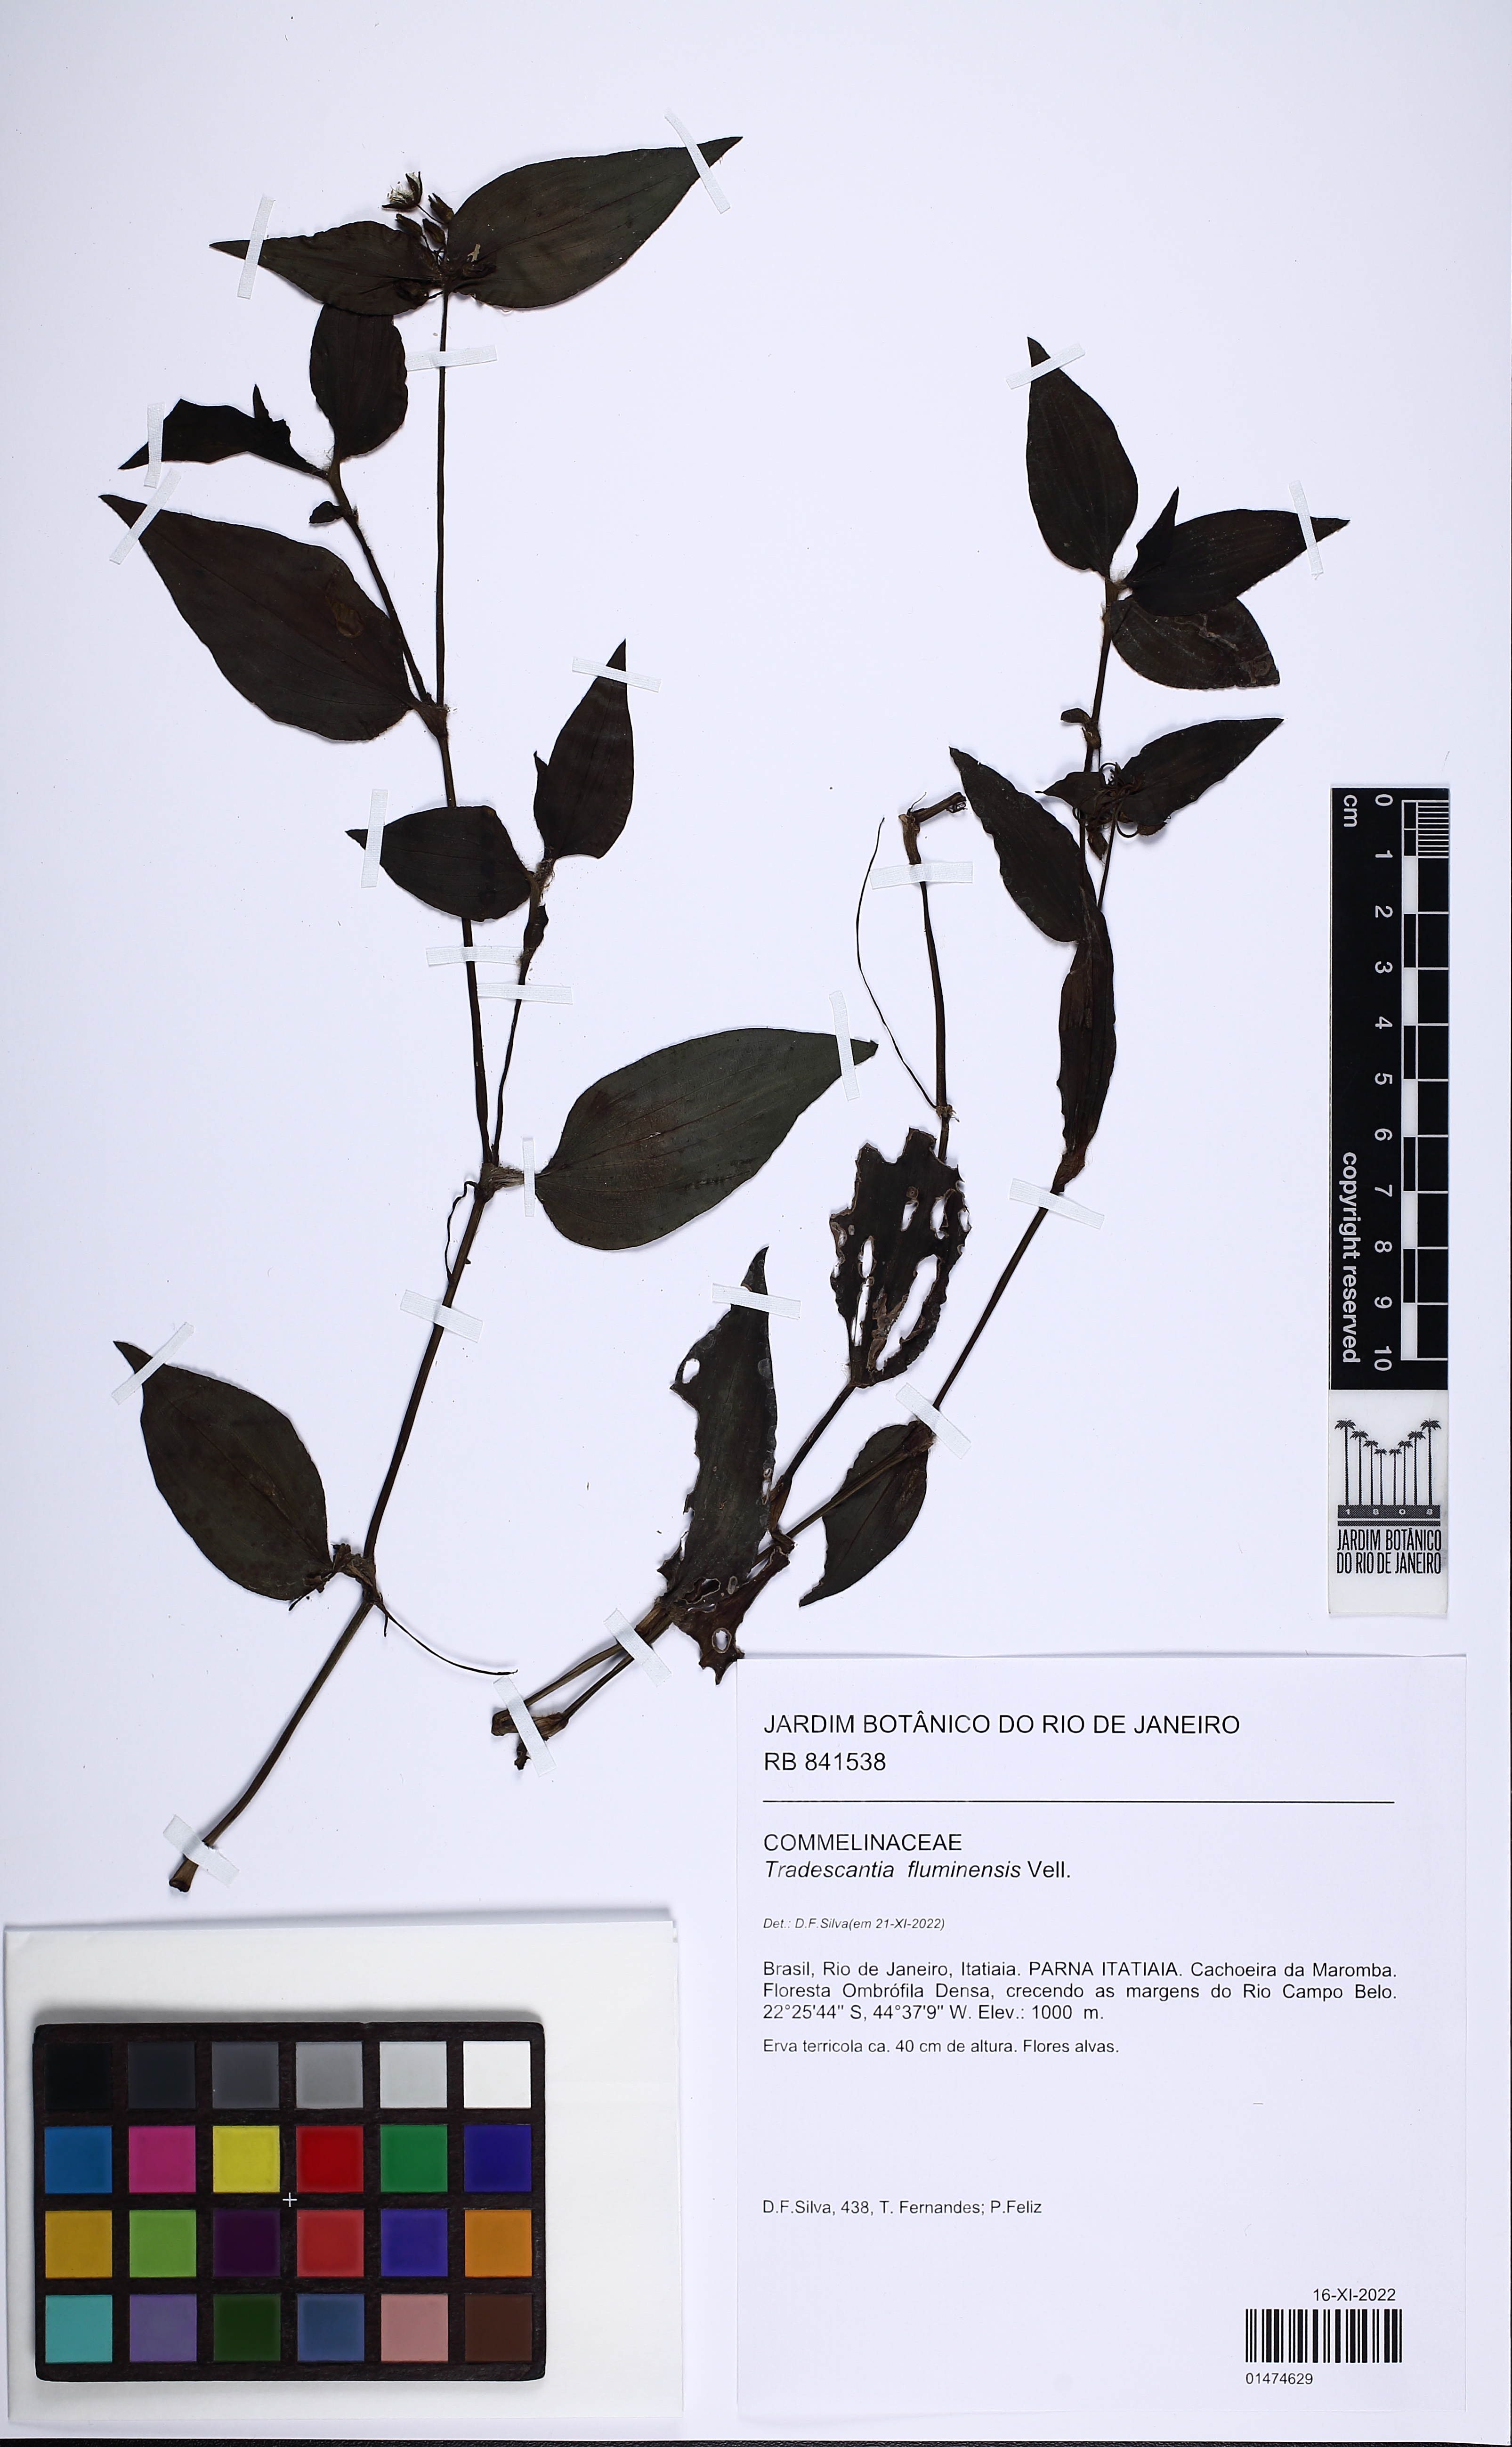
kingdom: Plantae
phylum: Tracheophyta
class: Liliopsida
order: Commelinales
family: Commelinaceae
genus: Tradescantia
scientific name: Tradescantia fluminensis
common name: Wandering-jew
